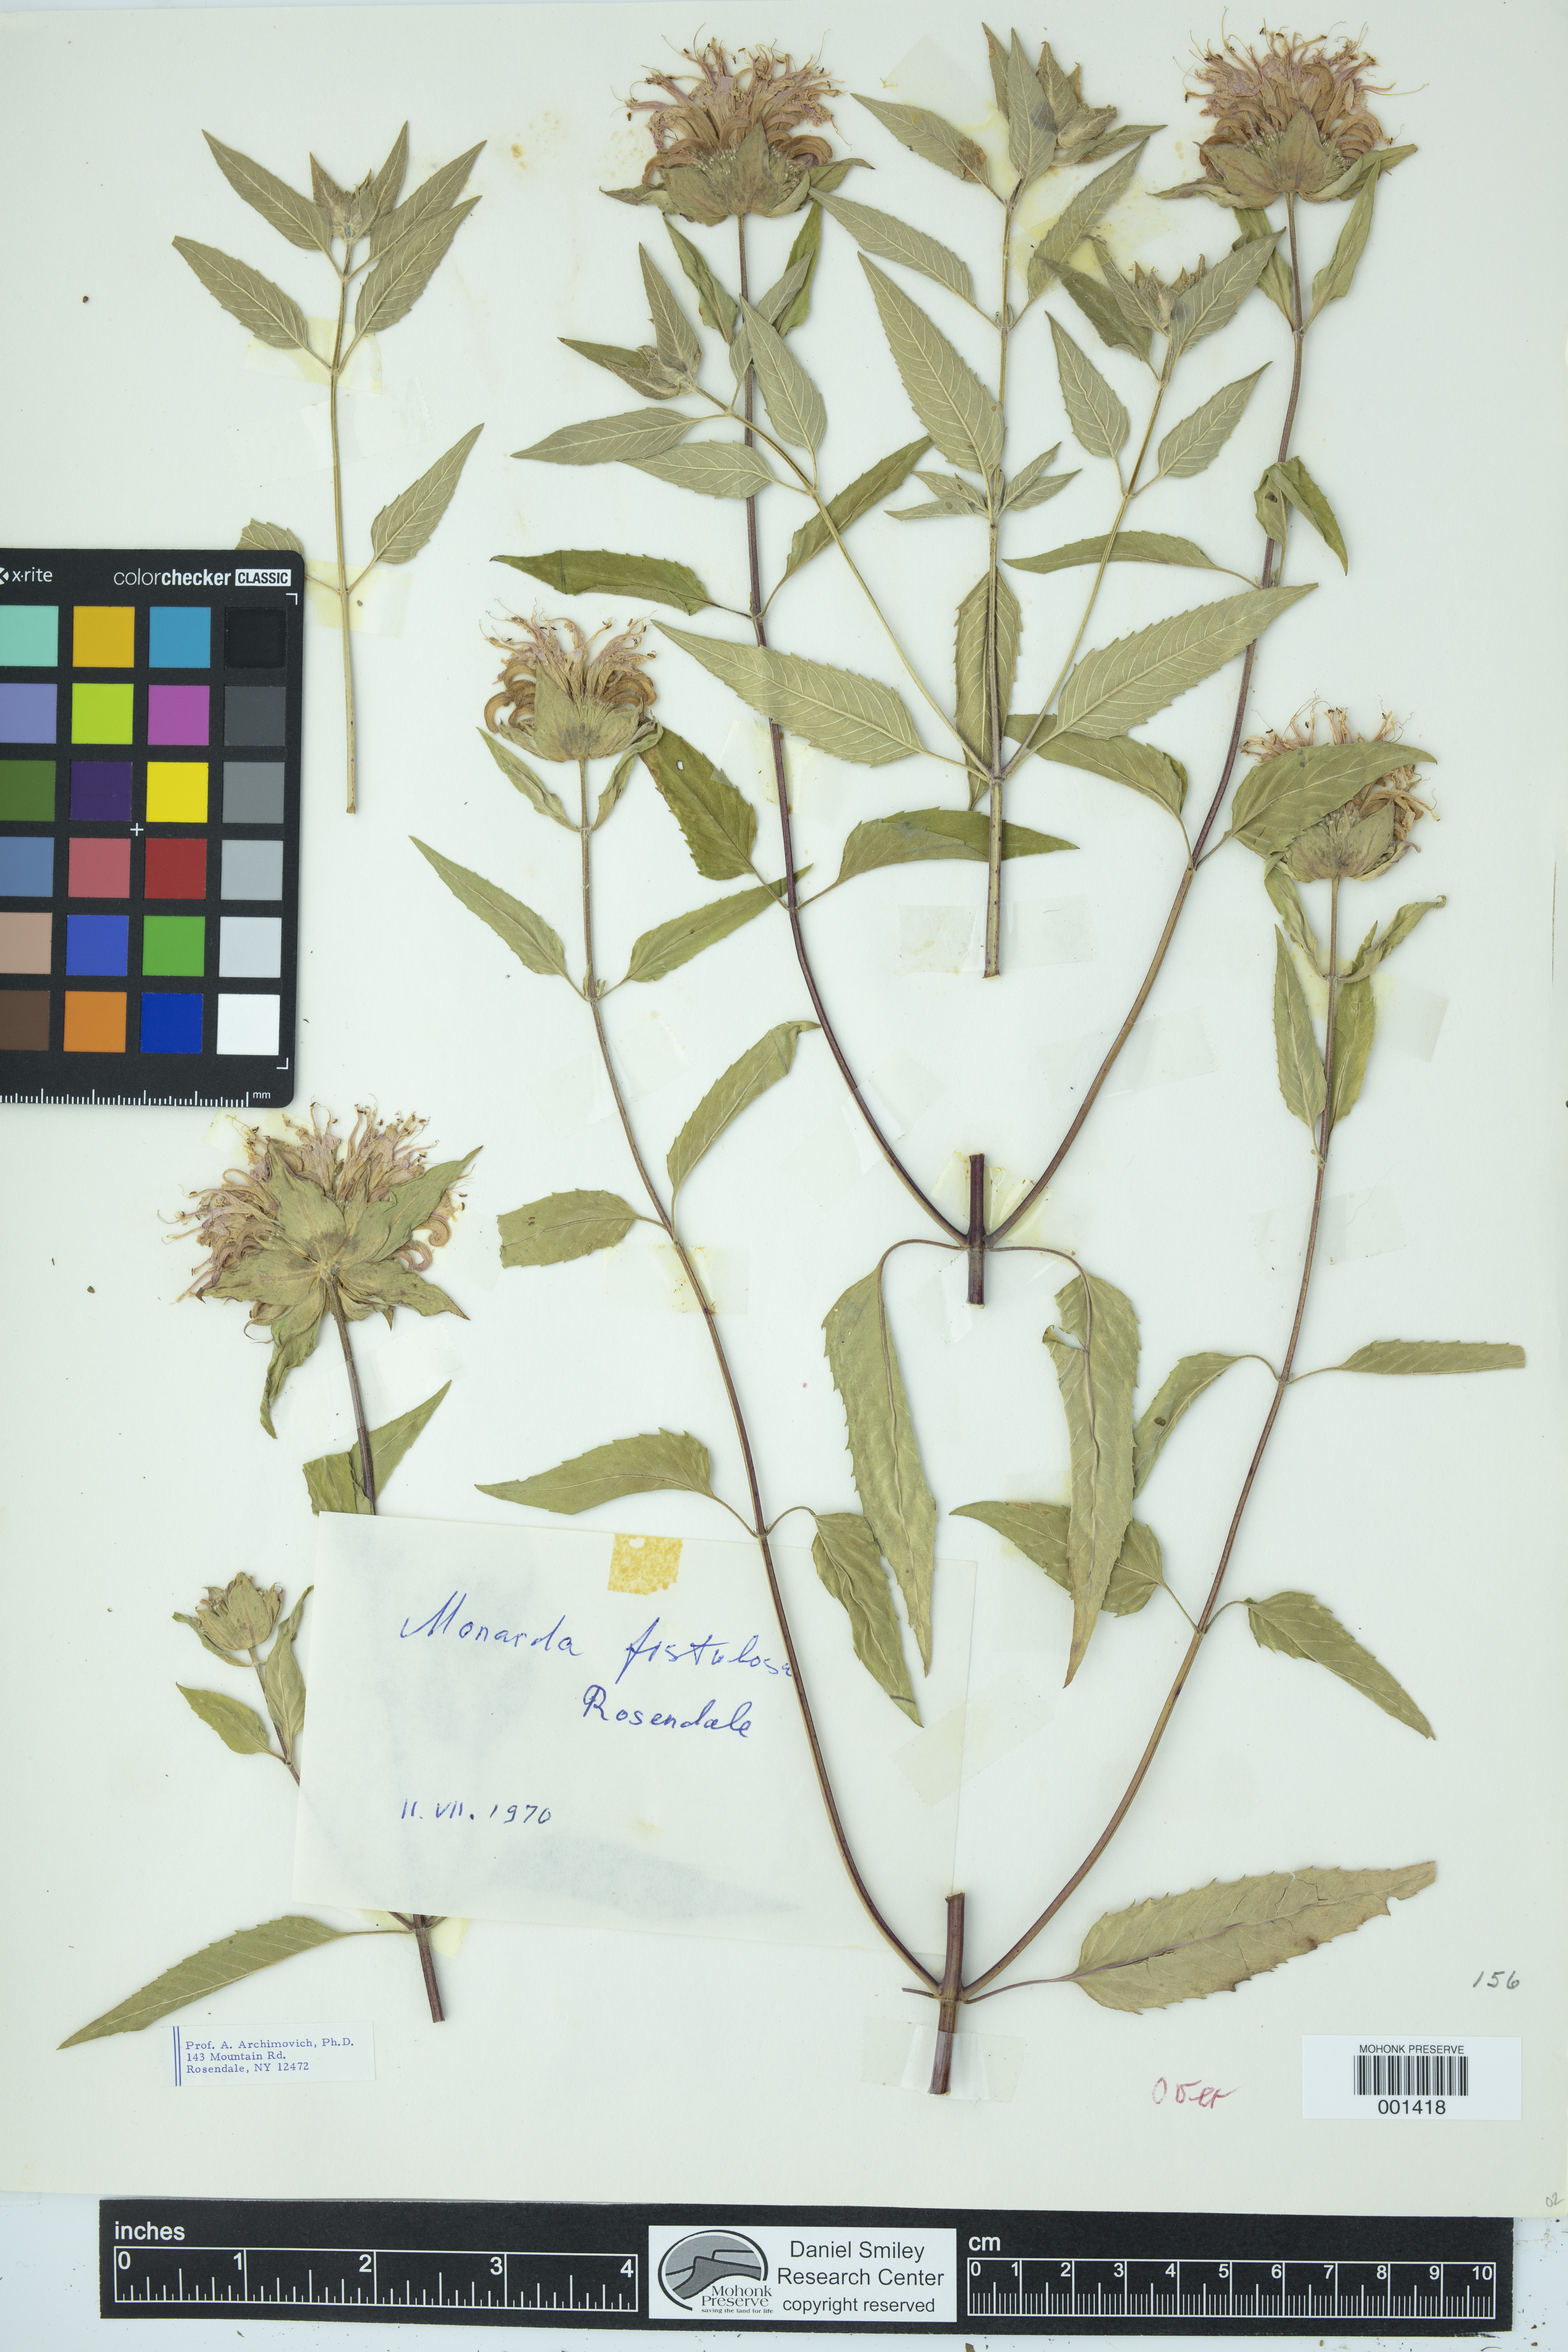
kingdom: Plantae
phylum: Tracheophyta
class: Magnoliopsida
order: Lamiales
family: Lamiaceae
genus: Monarda
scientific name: Monarda fistulosa
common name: Purple beebalm
